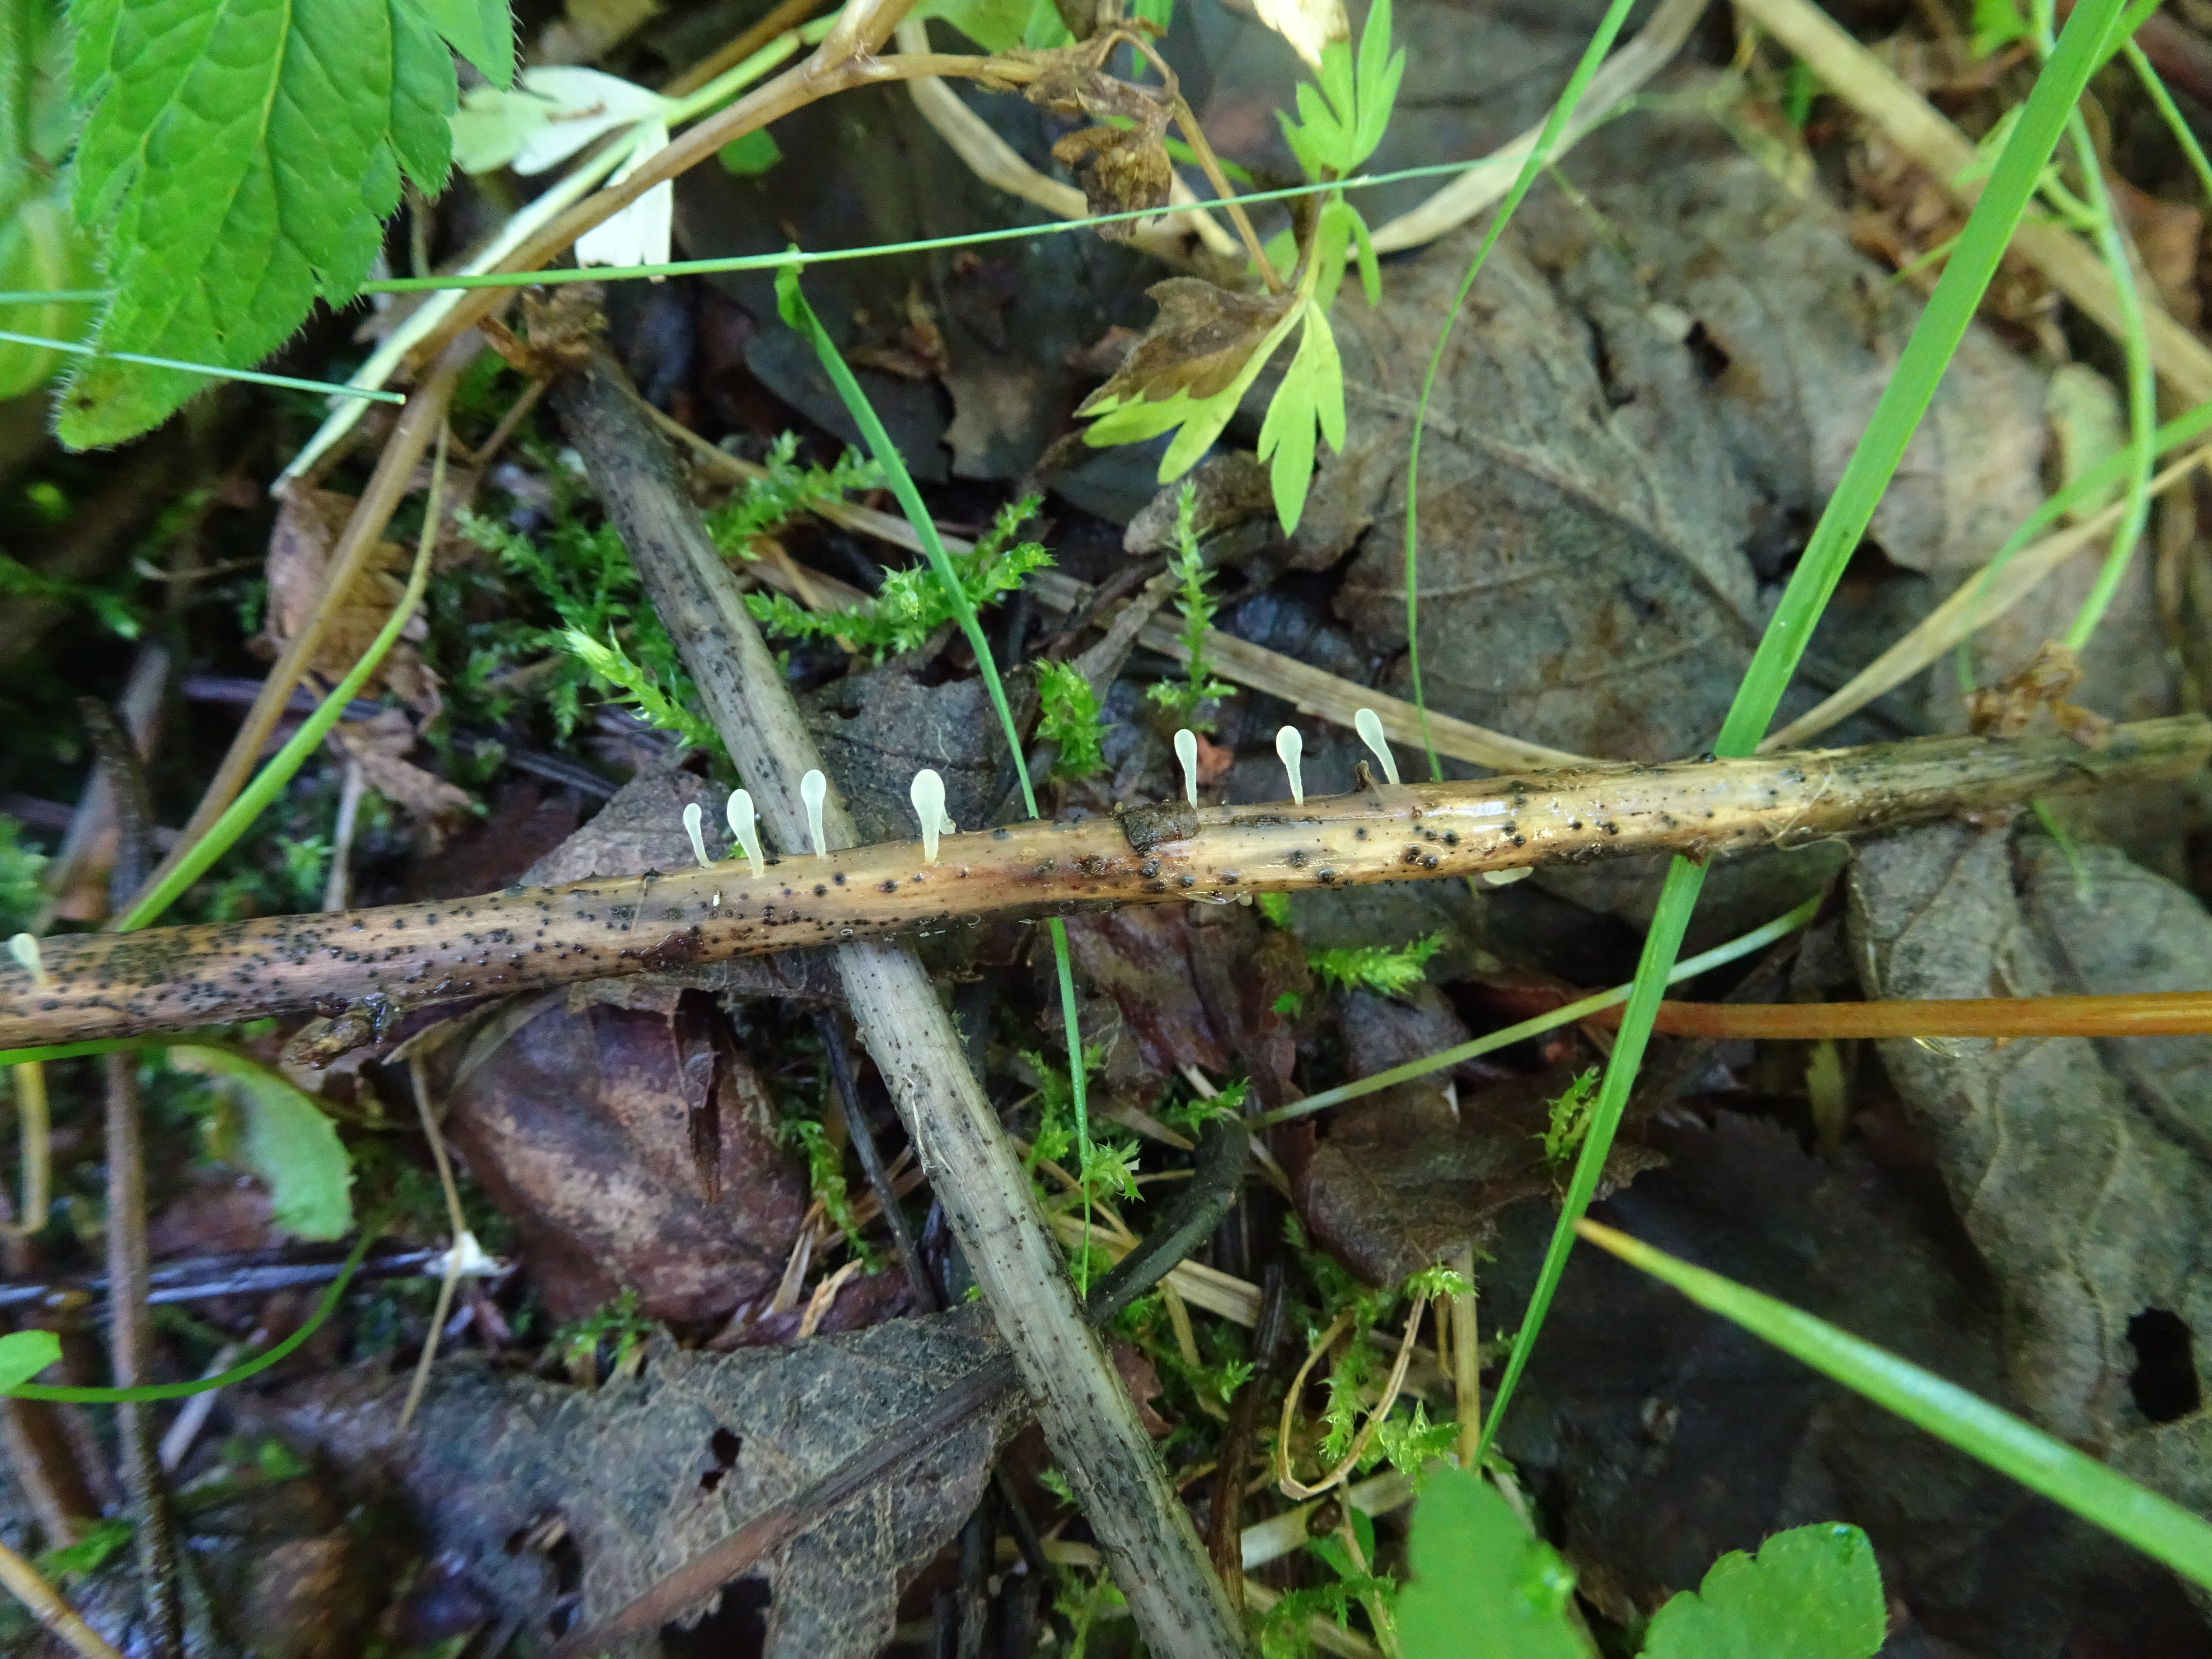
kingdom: Fungi
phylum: Basidiomycota
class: Agaricomycetes
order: Agaricales
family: Typhulaceae
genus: Typhula
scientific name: Typhula uncialis
